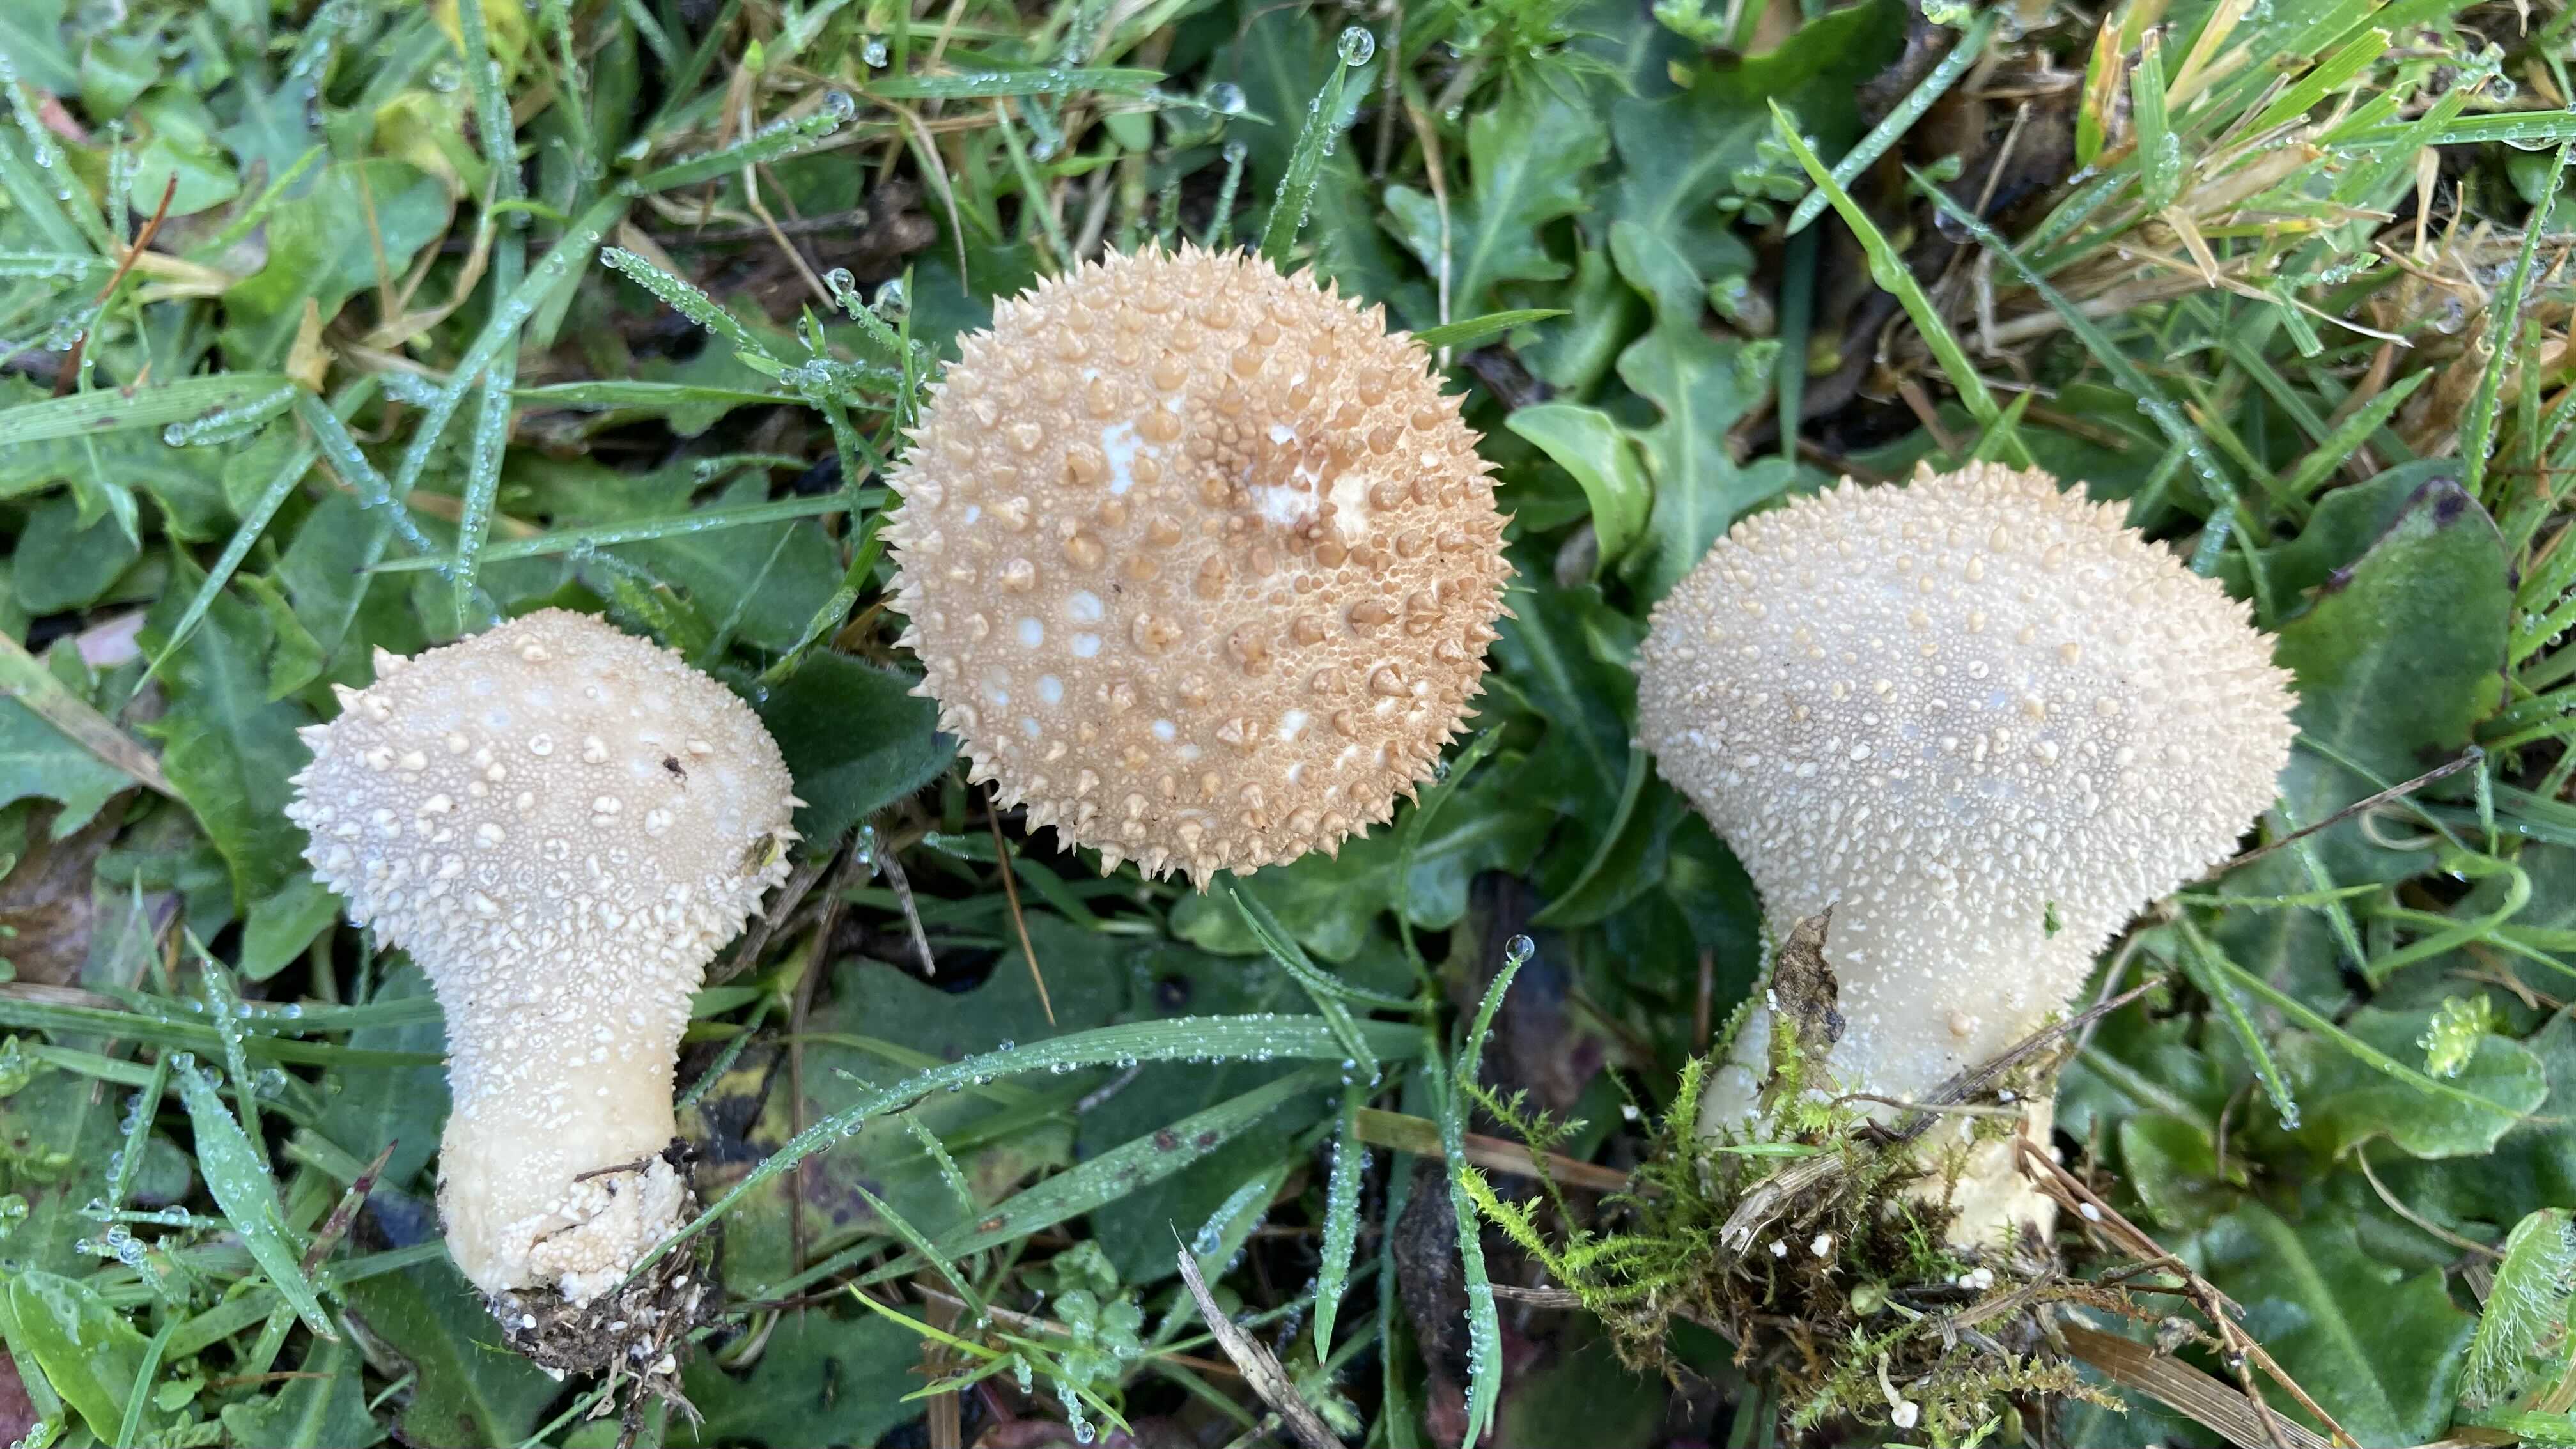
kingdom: Fungi
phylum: Basidiomycota
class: Agaricomycetes
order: Agaricales
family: Lycoperdaceae
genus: Lycoperdon
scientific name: Lycoperdon perlatum
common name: krystal-støvbold
